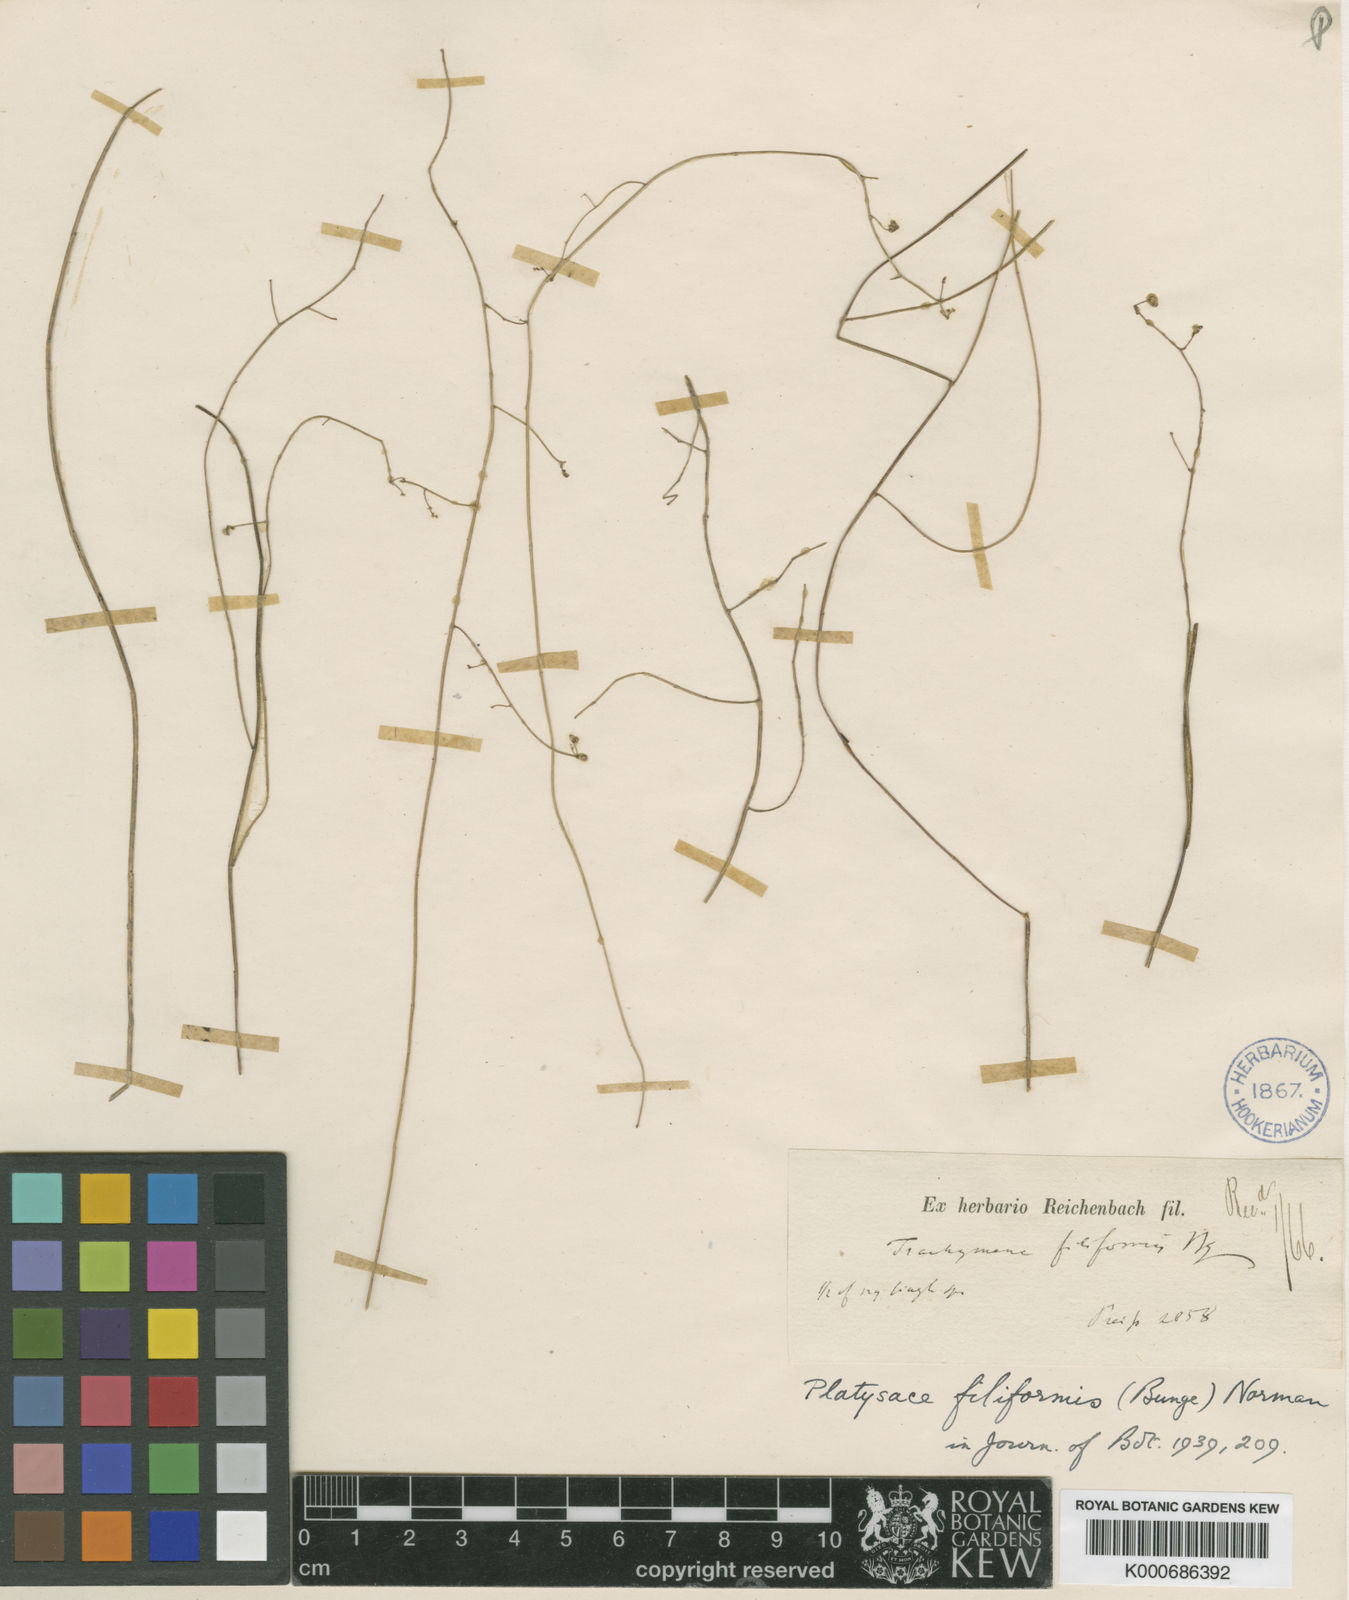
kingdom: Plantae
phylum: Tracheophyta
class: Magnoliopsida
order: Apiales
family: Apiaceae
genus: Platysace
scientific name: Platysace filiformis
